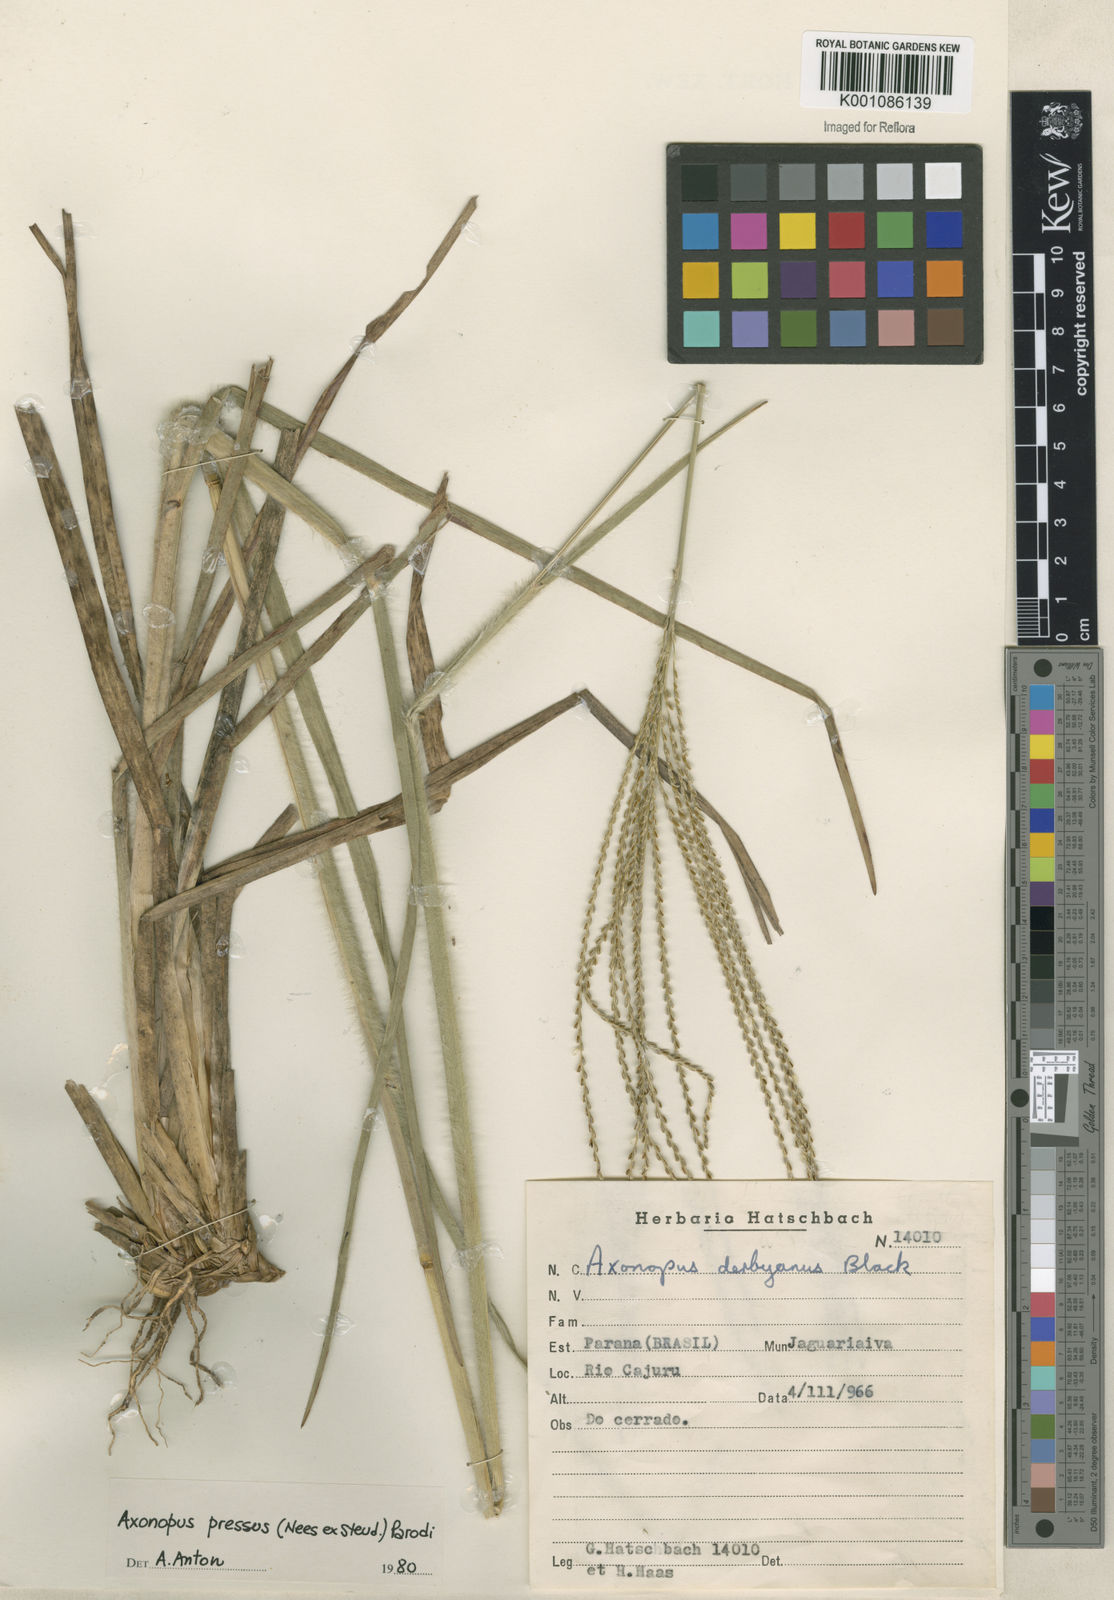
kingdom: Plantae
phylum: Tracheophyta
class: Liliopsida
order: Poales
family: Poaceae
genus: Axonopus
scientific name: Axonopus pressus
